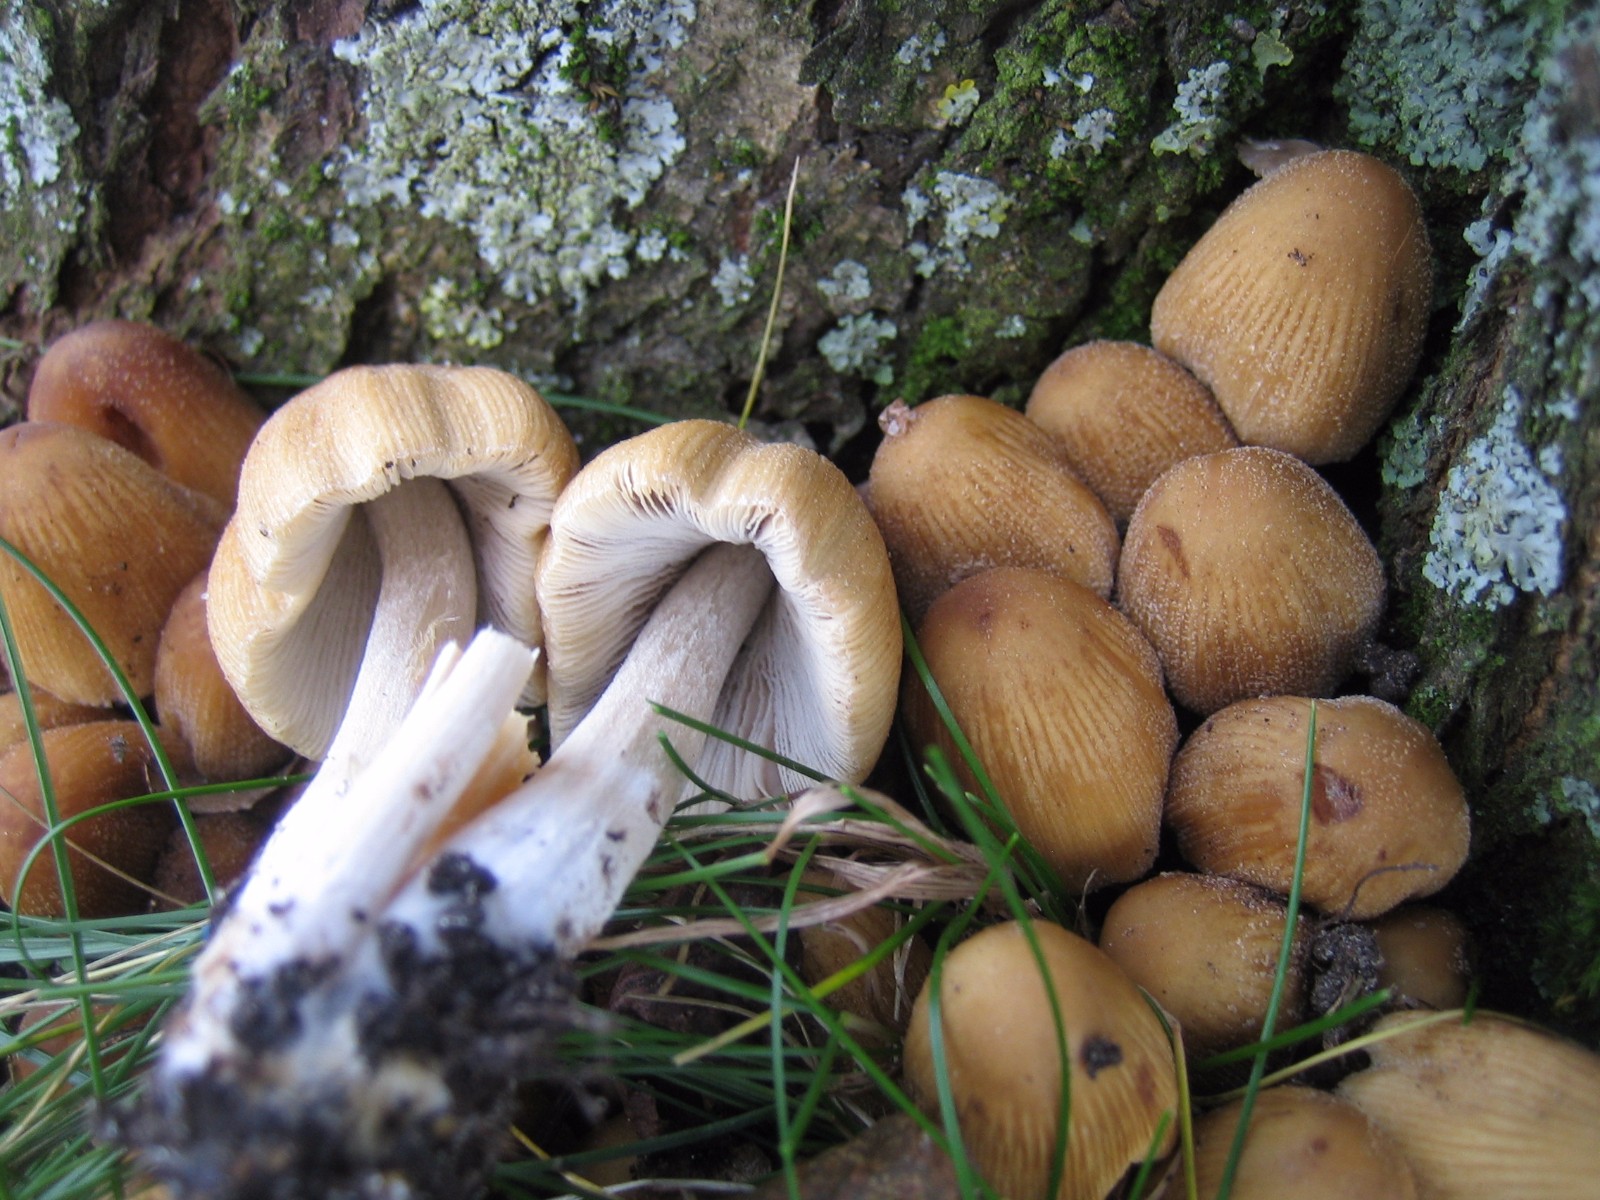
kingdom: Fungi
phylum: Basidiomycota
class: Agaricomycetes
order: Agaricales
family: Psathyrellaceae
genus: Coprinellus
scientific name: Coprinellus micaceus
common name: glimmer-blækhat
